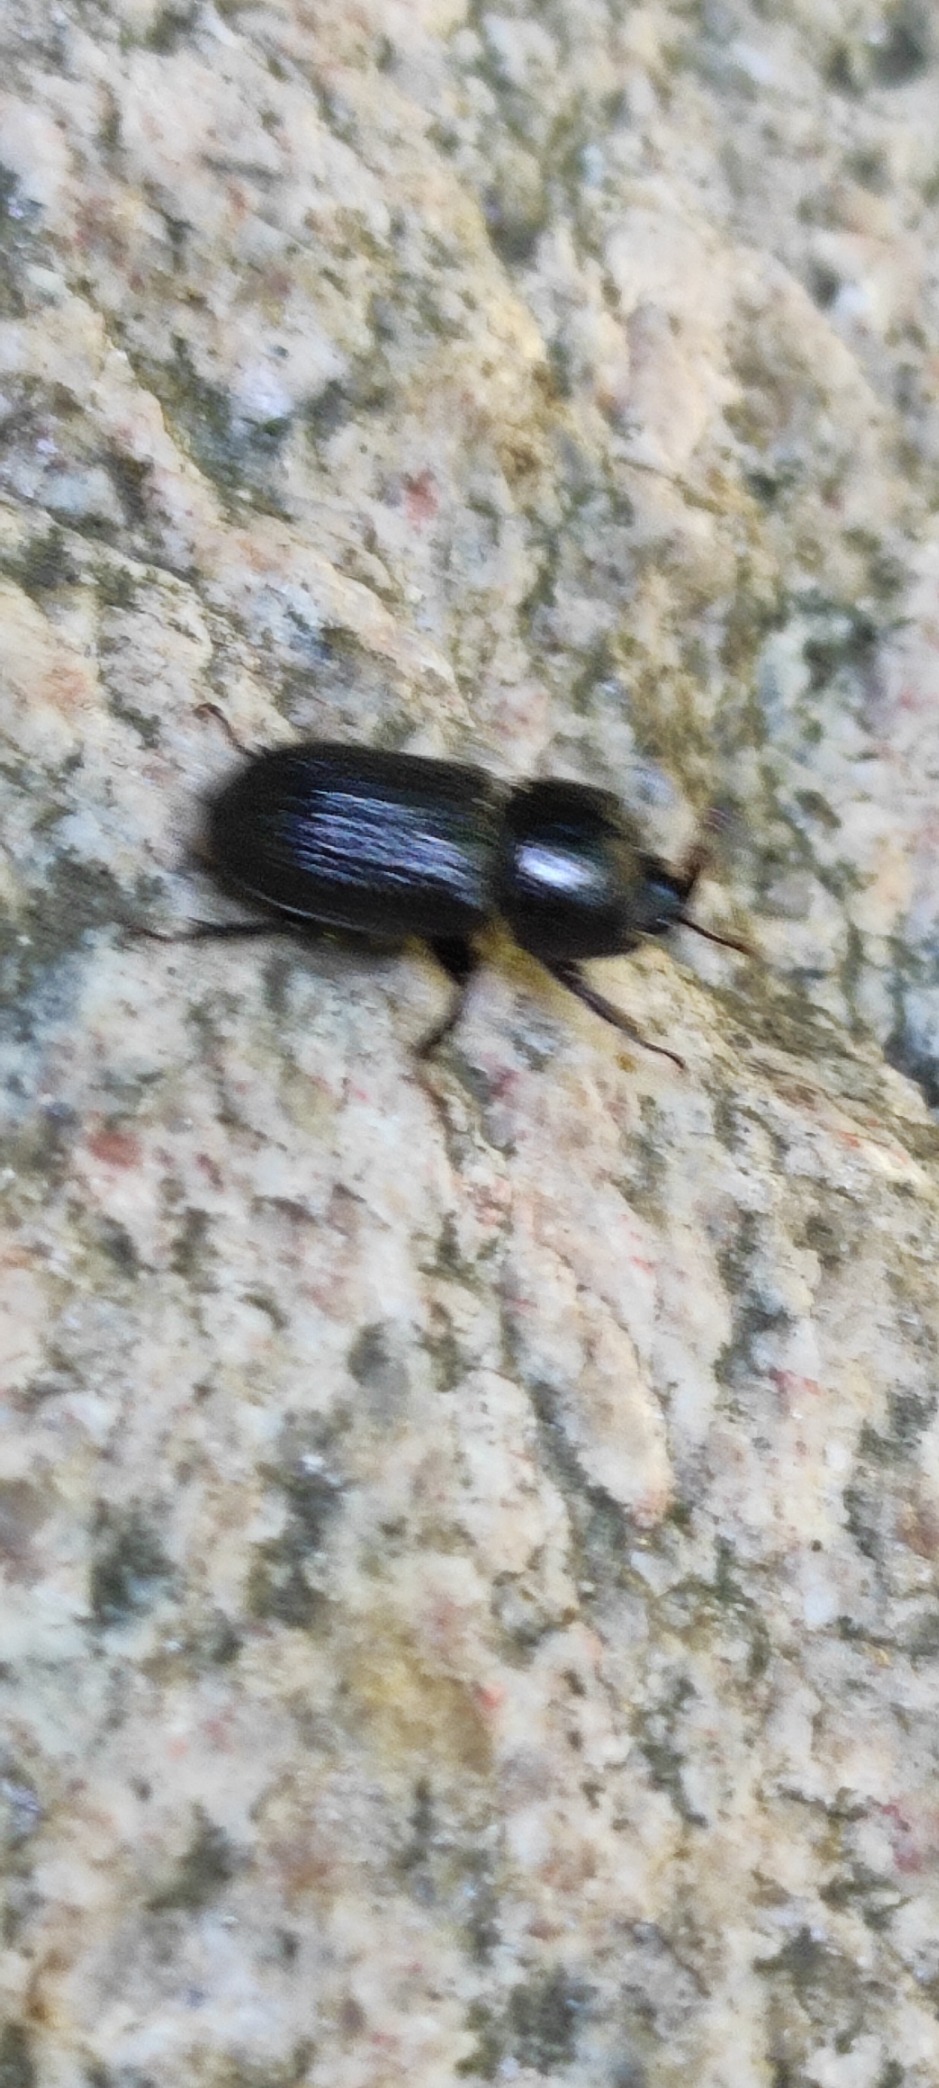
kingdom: Animalia
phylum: Arthropoda
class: Insecta
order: Coleoptera
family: Lucanidae
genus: Sinodendron
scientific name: Sinodendron cylindricum
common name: Valsehjort
